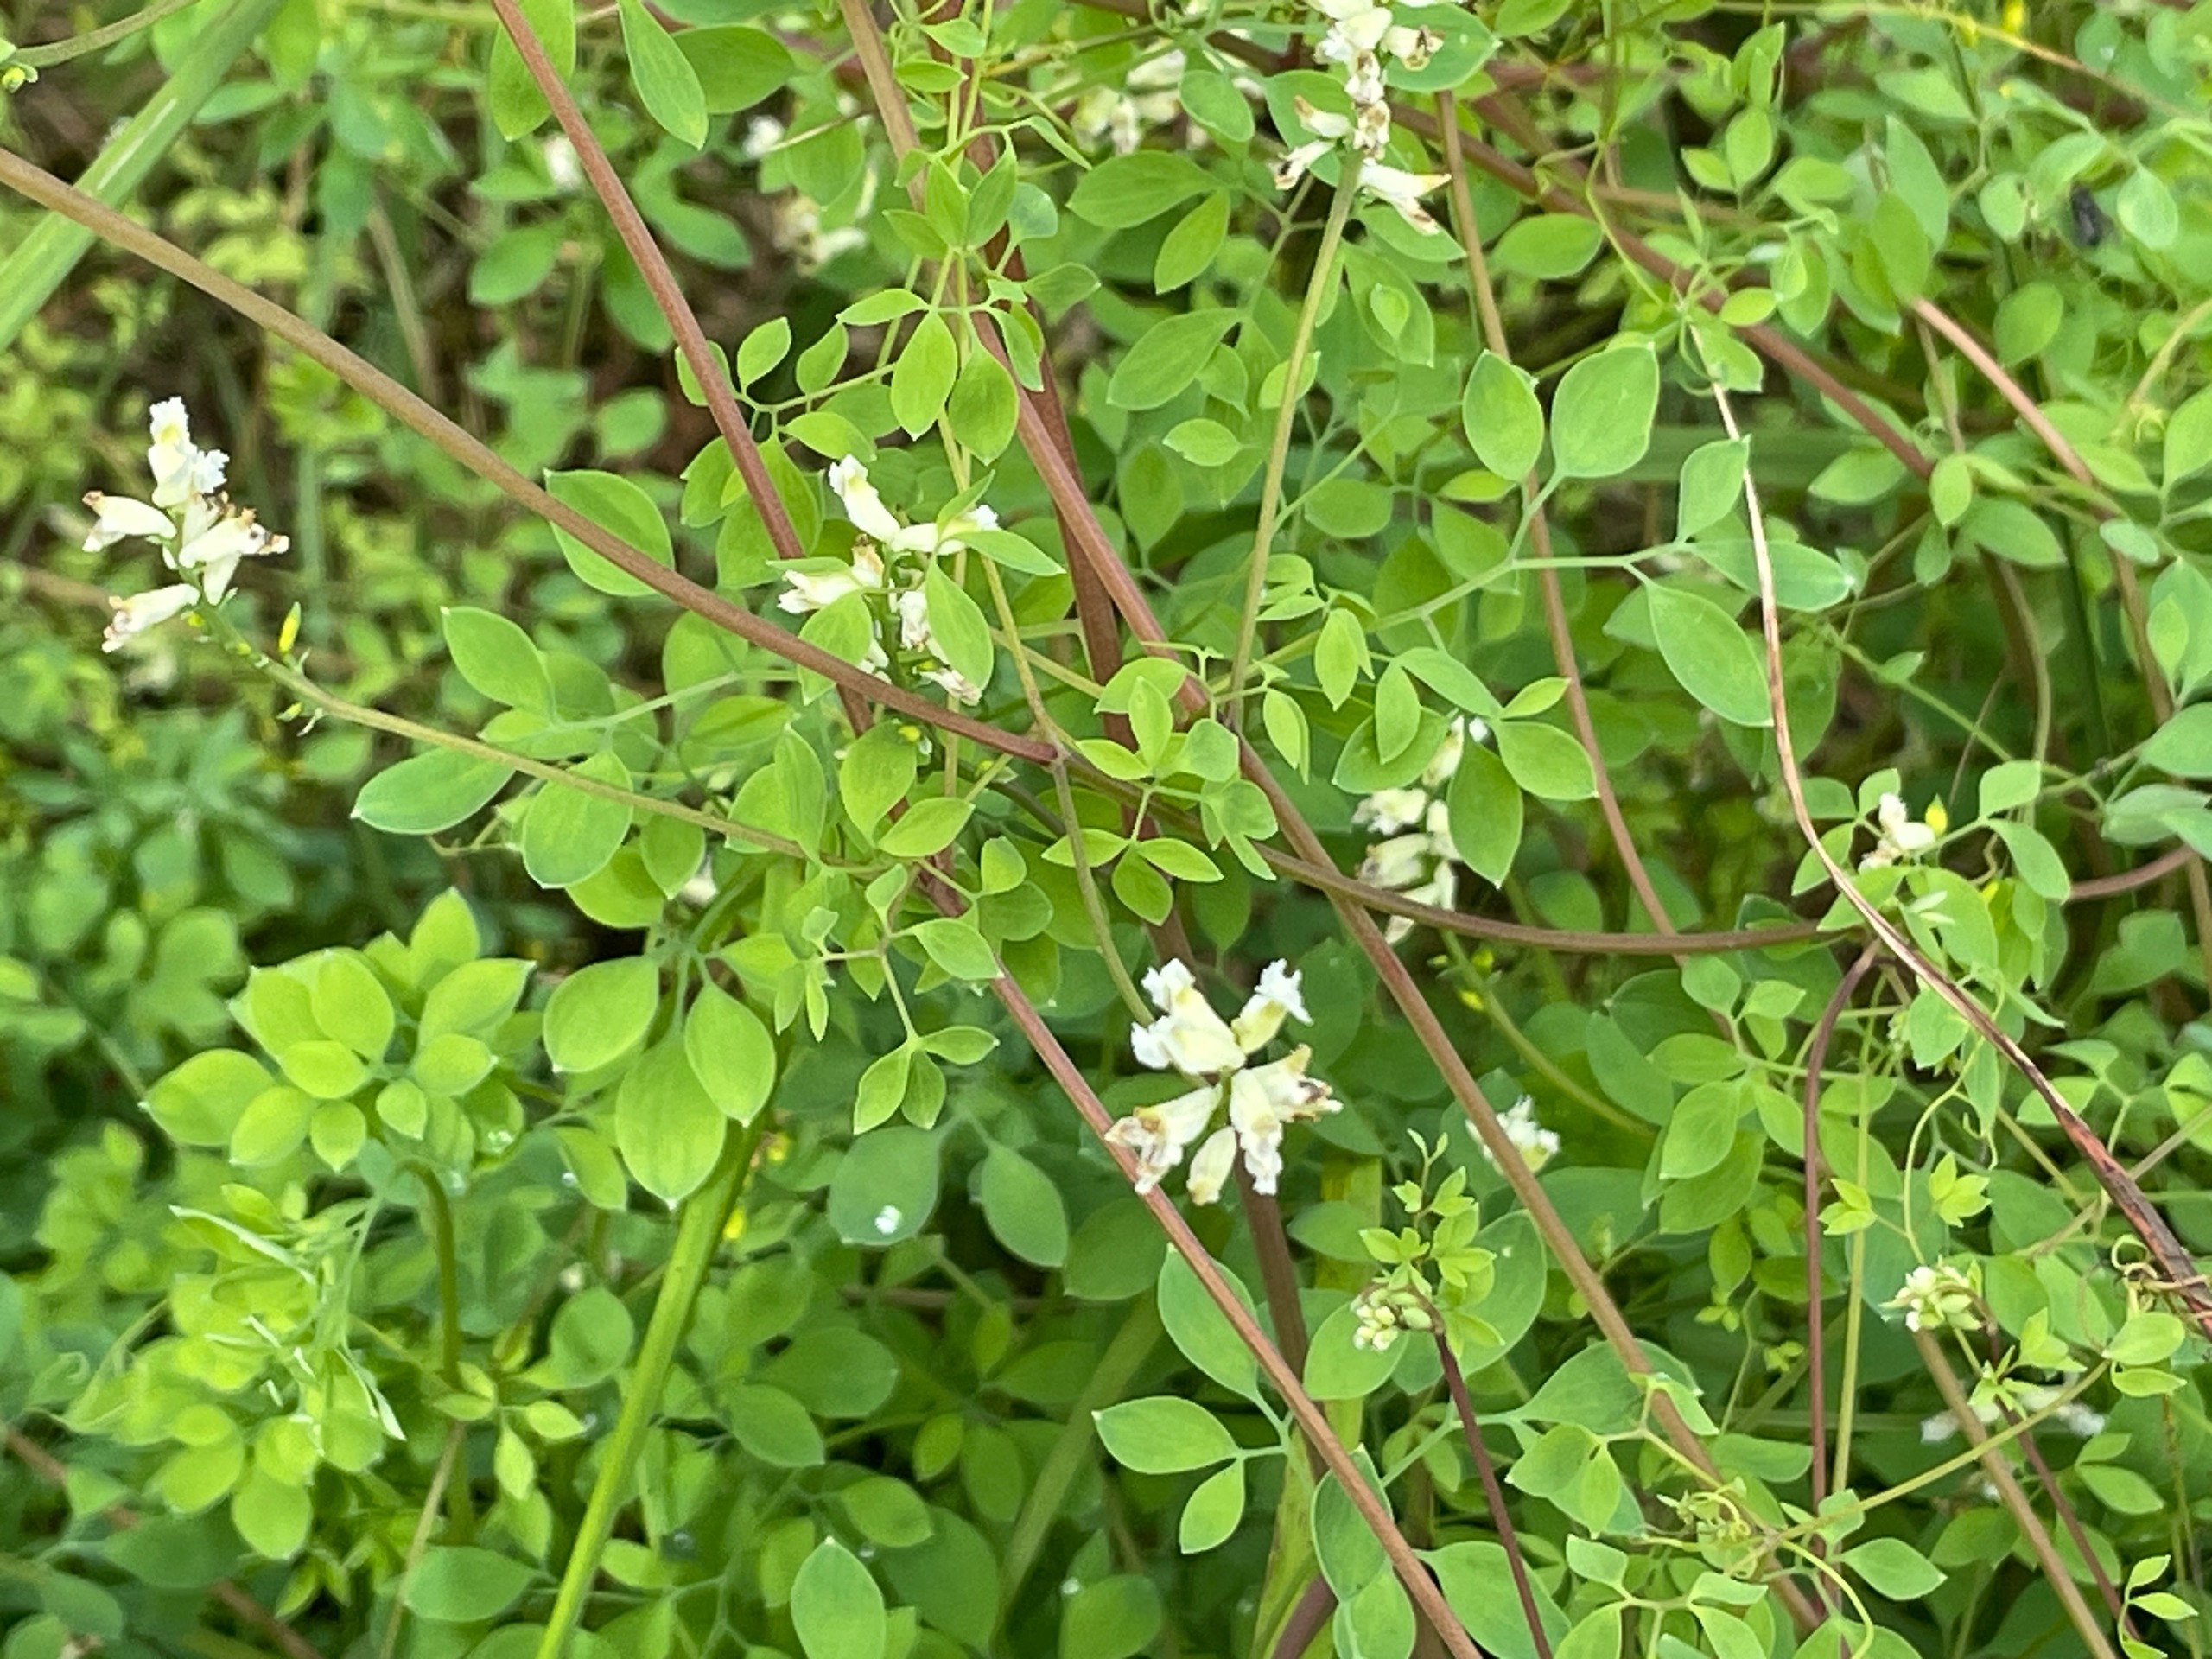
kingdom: Plantae
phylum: Tracheophyta
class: Magnoliopsida
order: Ranunculales
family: Papaveraceae
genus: Ceratocapnos
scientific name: Ceratocapnos claviculata
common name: Klatrende lærkespore
